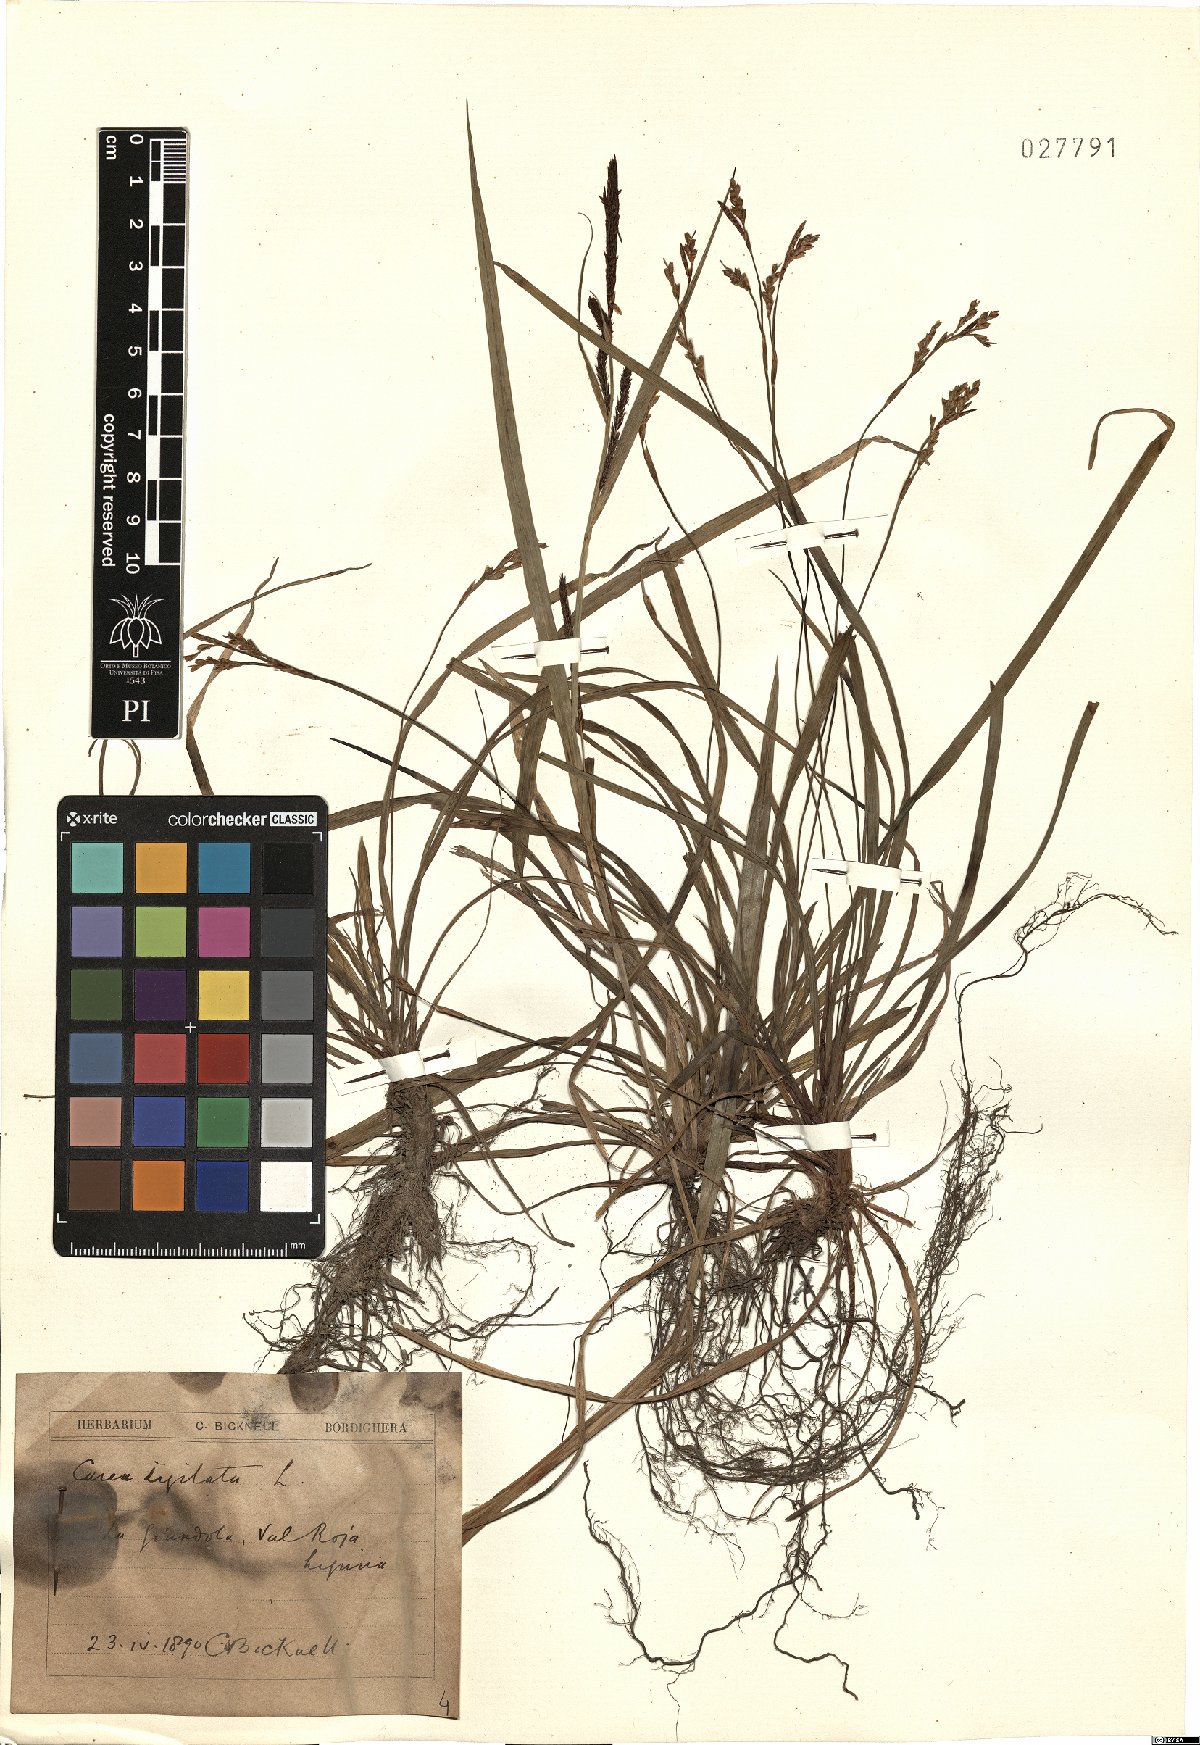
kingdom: Plantae
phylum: Tracheophyta
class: Liliopsida
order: Poales
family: Cyperaceae
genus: Carex
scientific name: Carex digitata
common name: Fingered sedge
